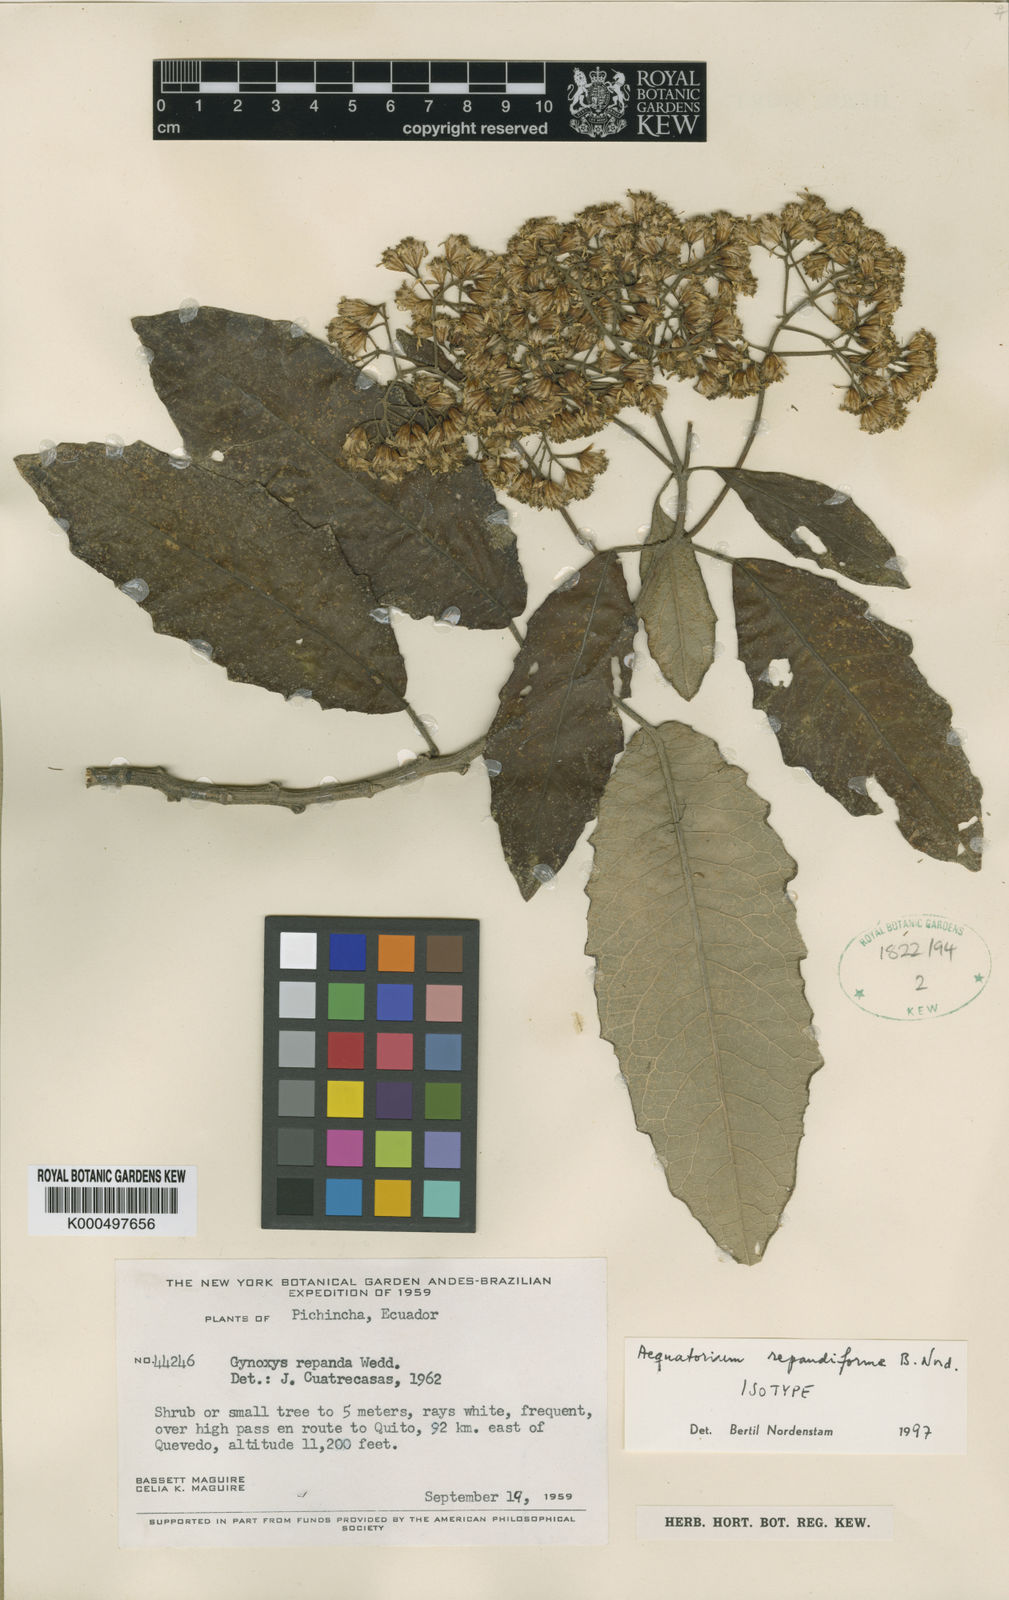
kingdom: Plantae
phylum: Tracheophyta
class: Magnoliopsida
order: Asterales
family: Asteraceae
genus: Nordenstamia
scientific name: Nordenstamia repanda
